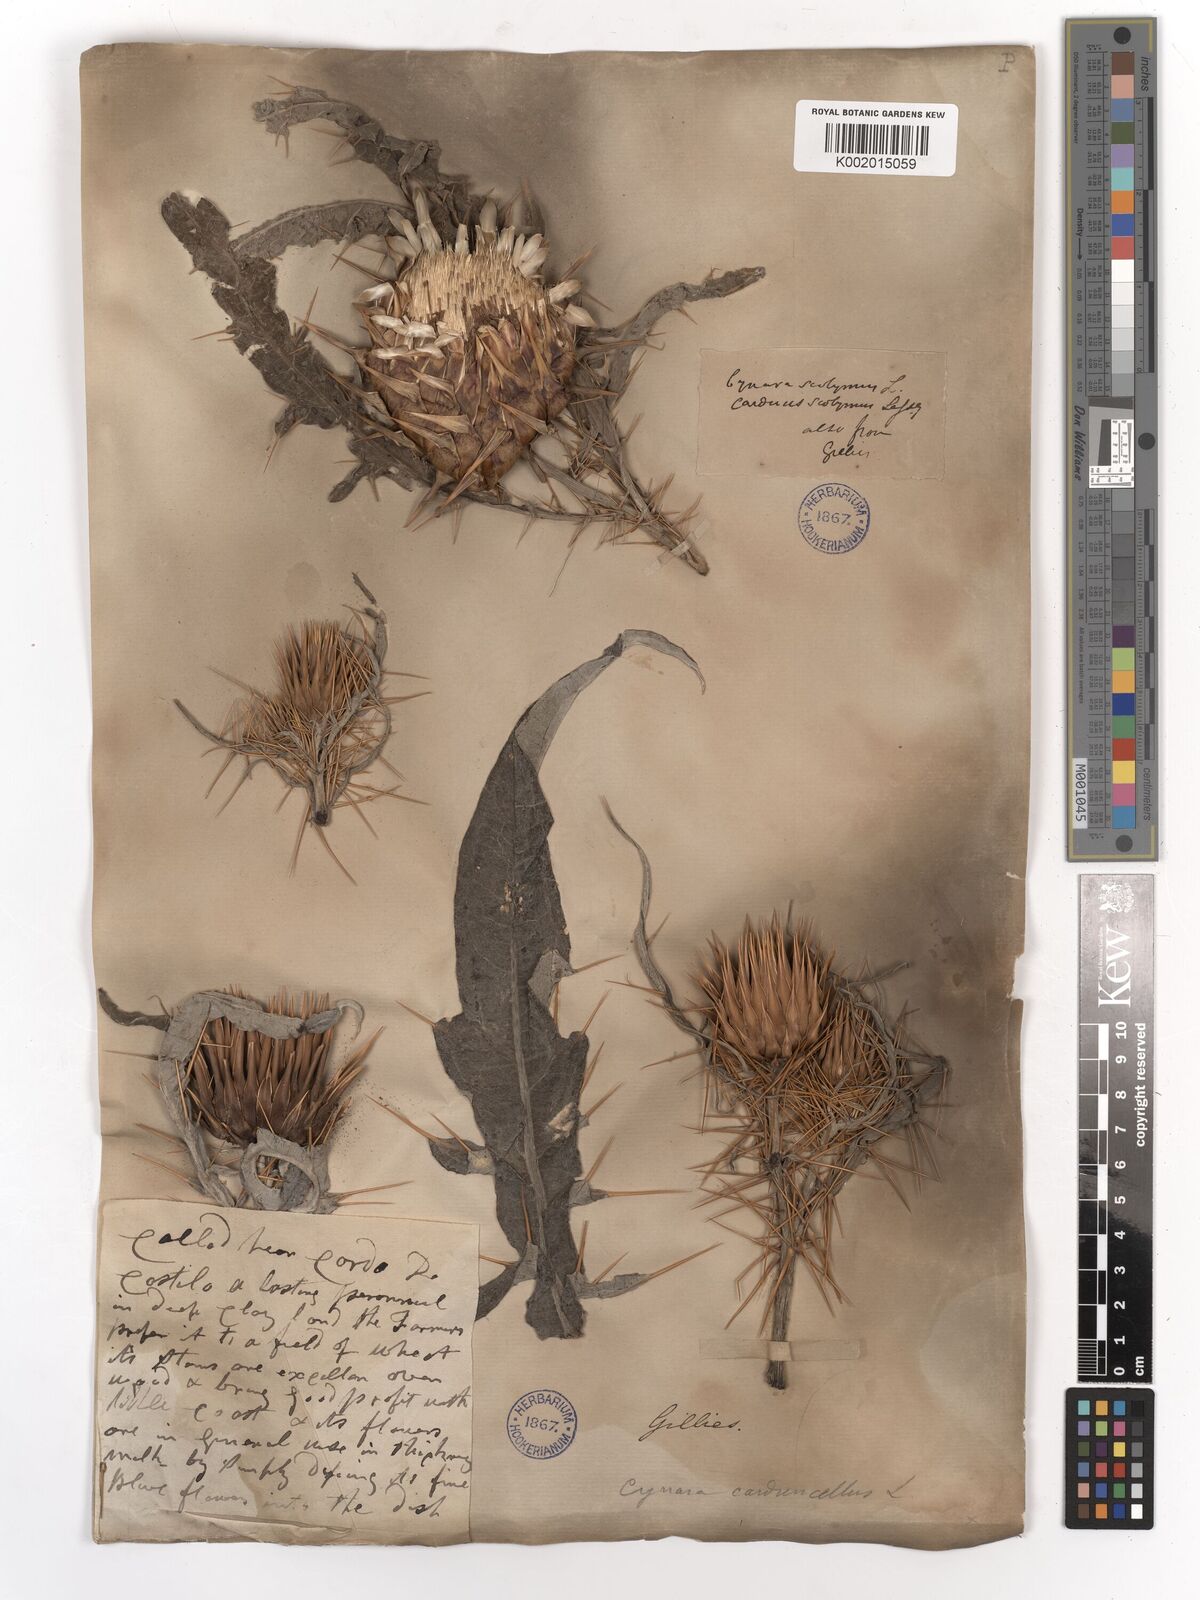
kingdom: Plantae
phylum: Tracheophyta
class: Magnoliopsida
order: Asterales
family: Asteraceae
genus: Cynara
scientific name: Cynara cardunculus
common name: Globe artichoke
